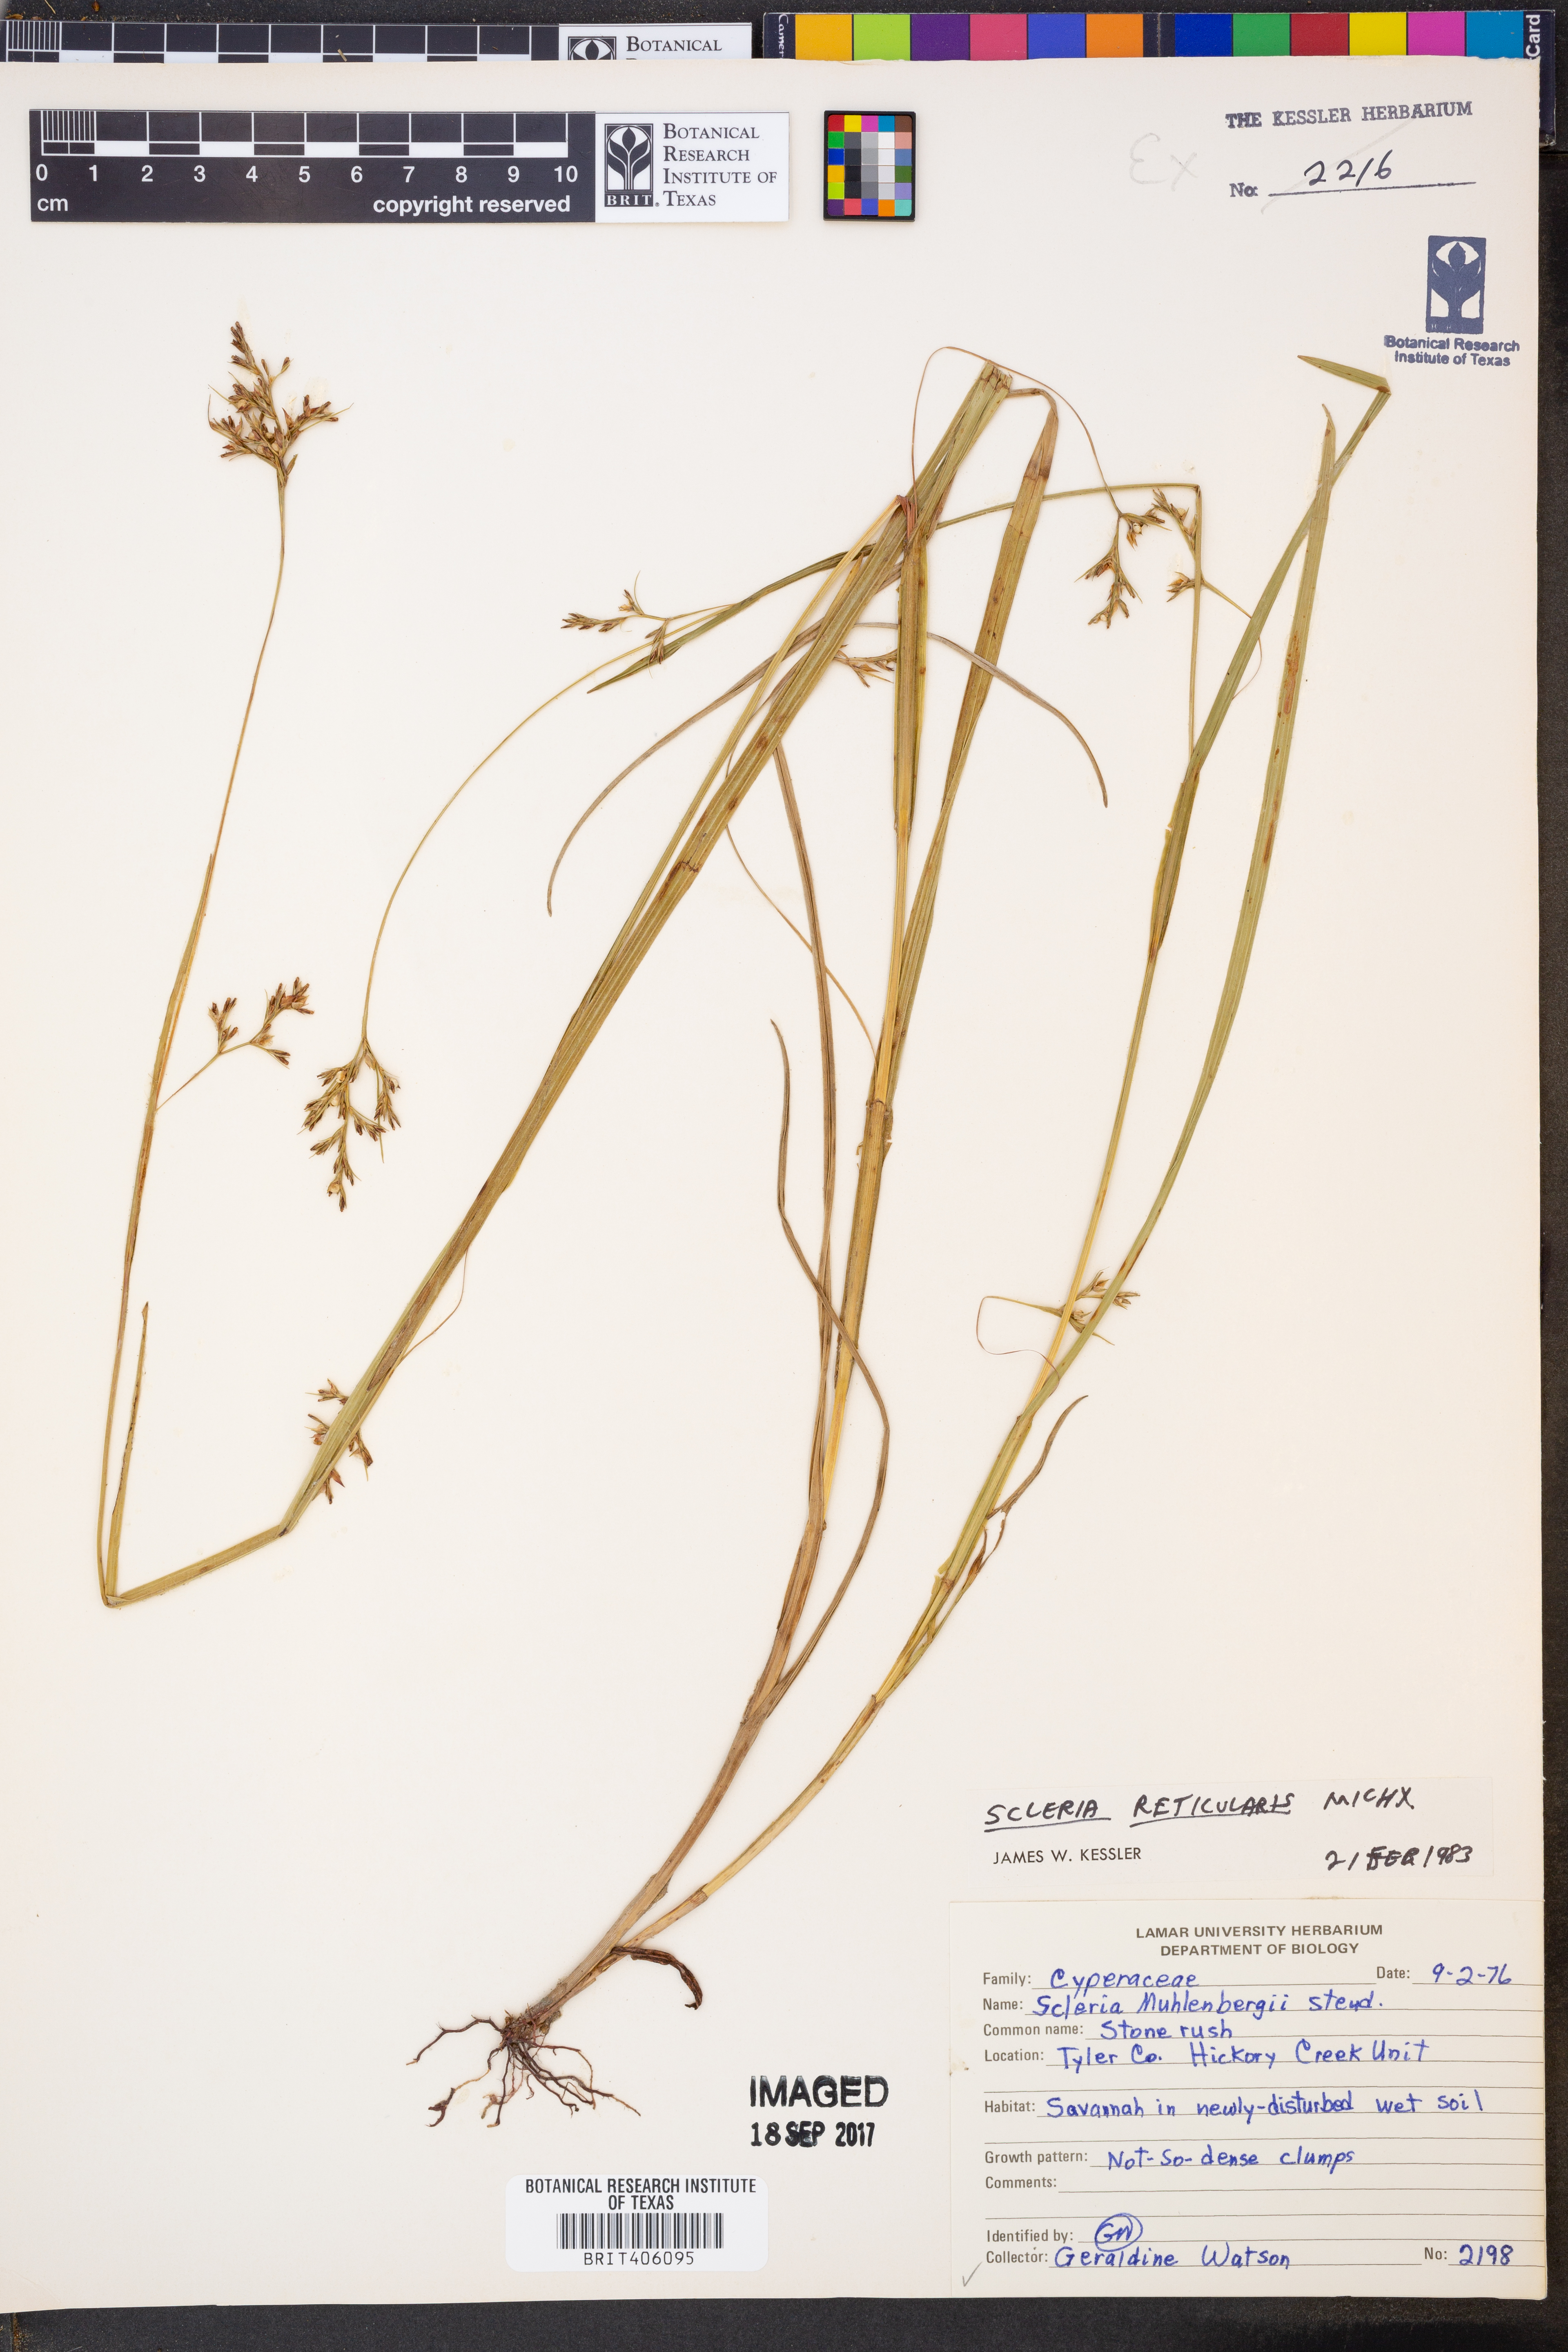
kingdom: Plantae
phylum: Tracheophyta
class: Liliopsida
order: Poales
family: Cyperaceae
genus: Scleria
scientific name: Scleria reticularis
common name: Netted nutrush
